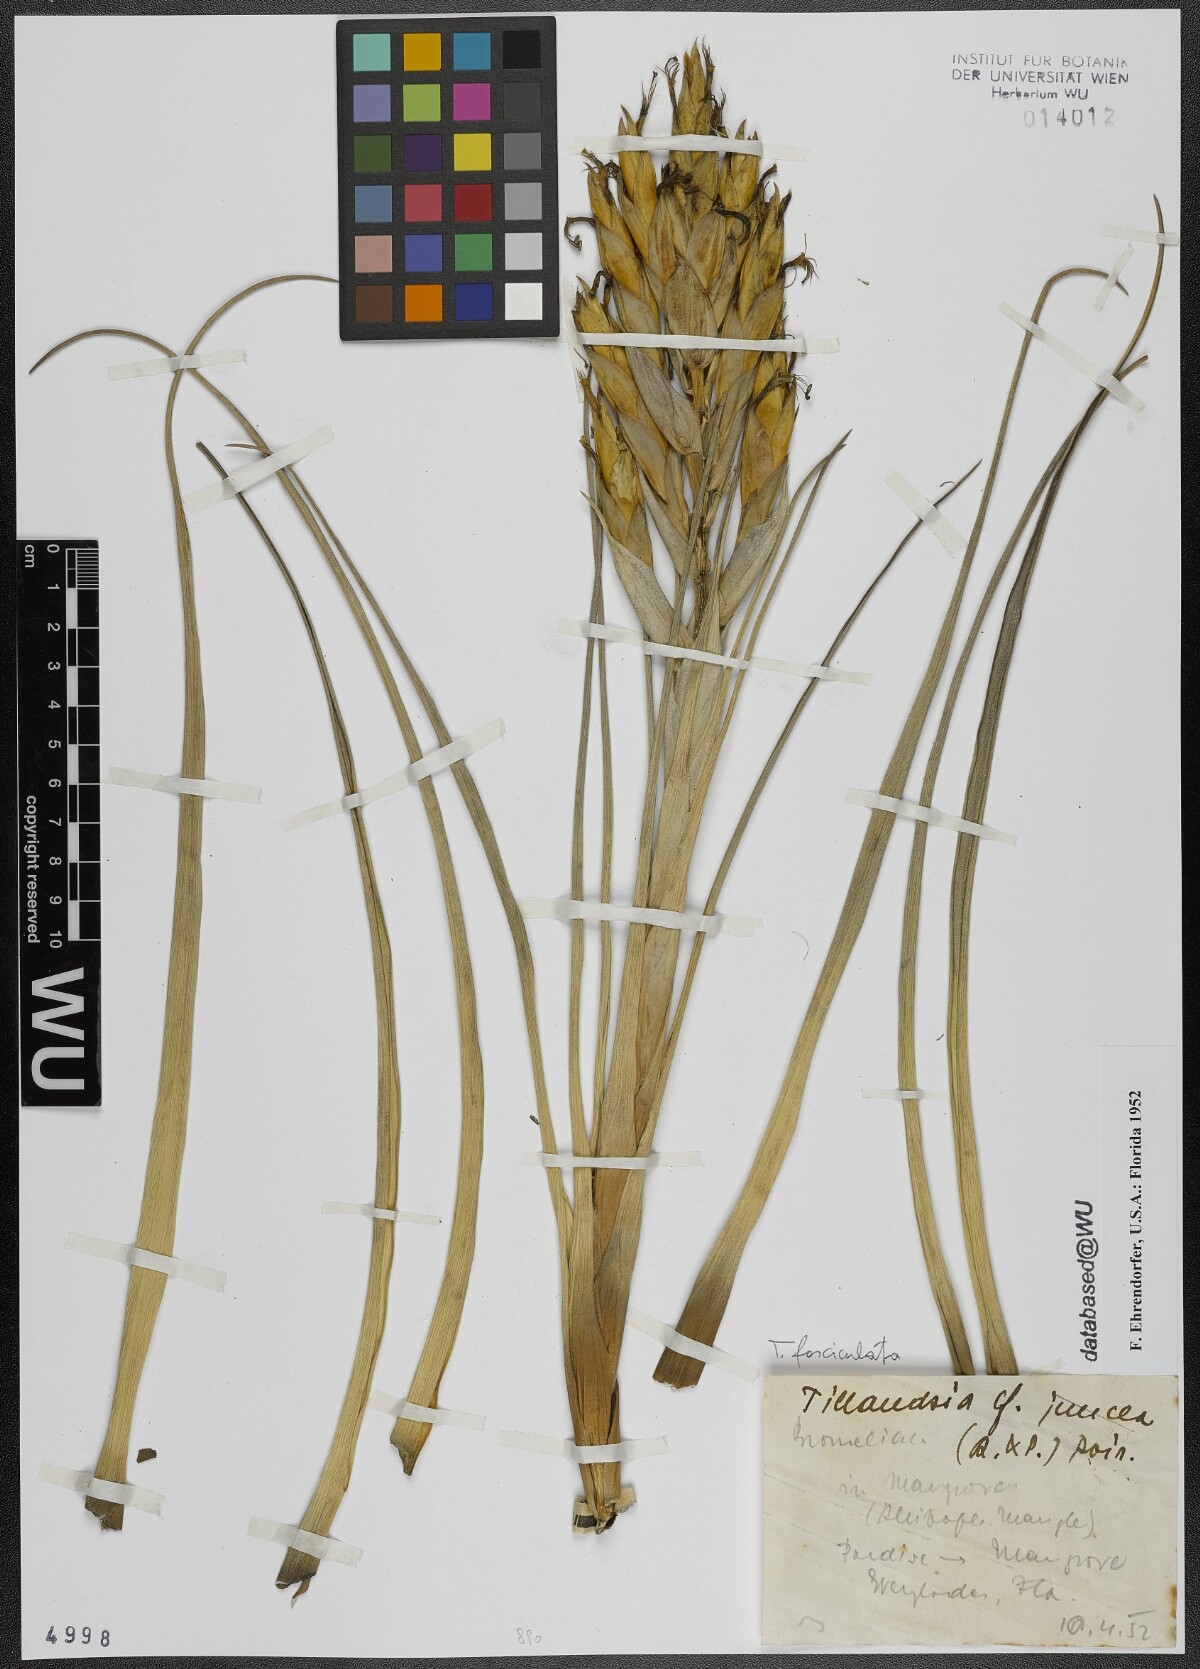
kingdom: Plantae
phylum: Tracheophyta
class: Liliopsida
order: Poales
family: Bromeliaceae
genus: Tillandsia
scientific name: Tillandsia fasciculata
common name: Giant airplant
